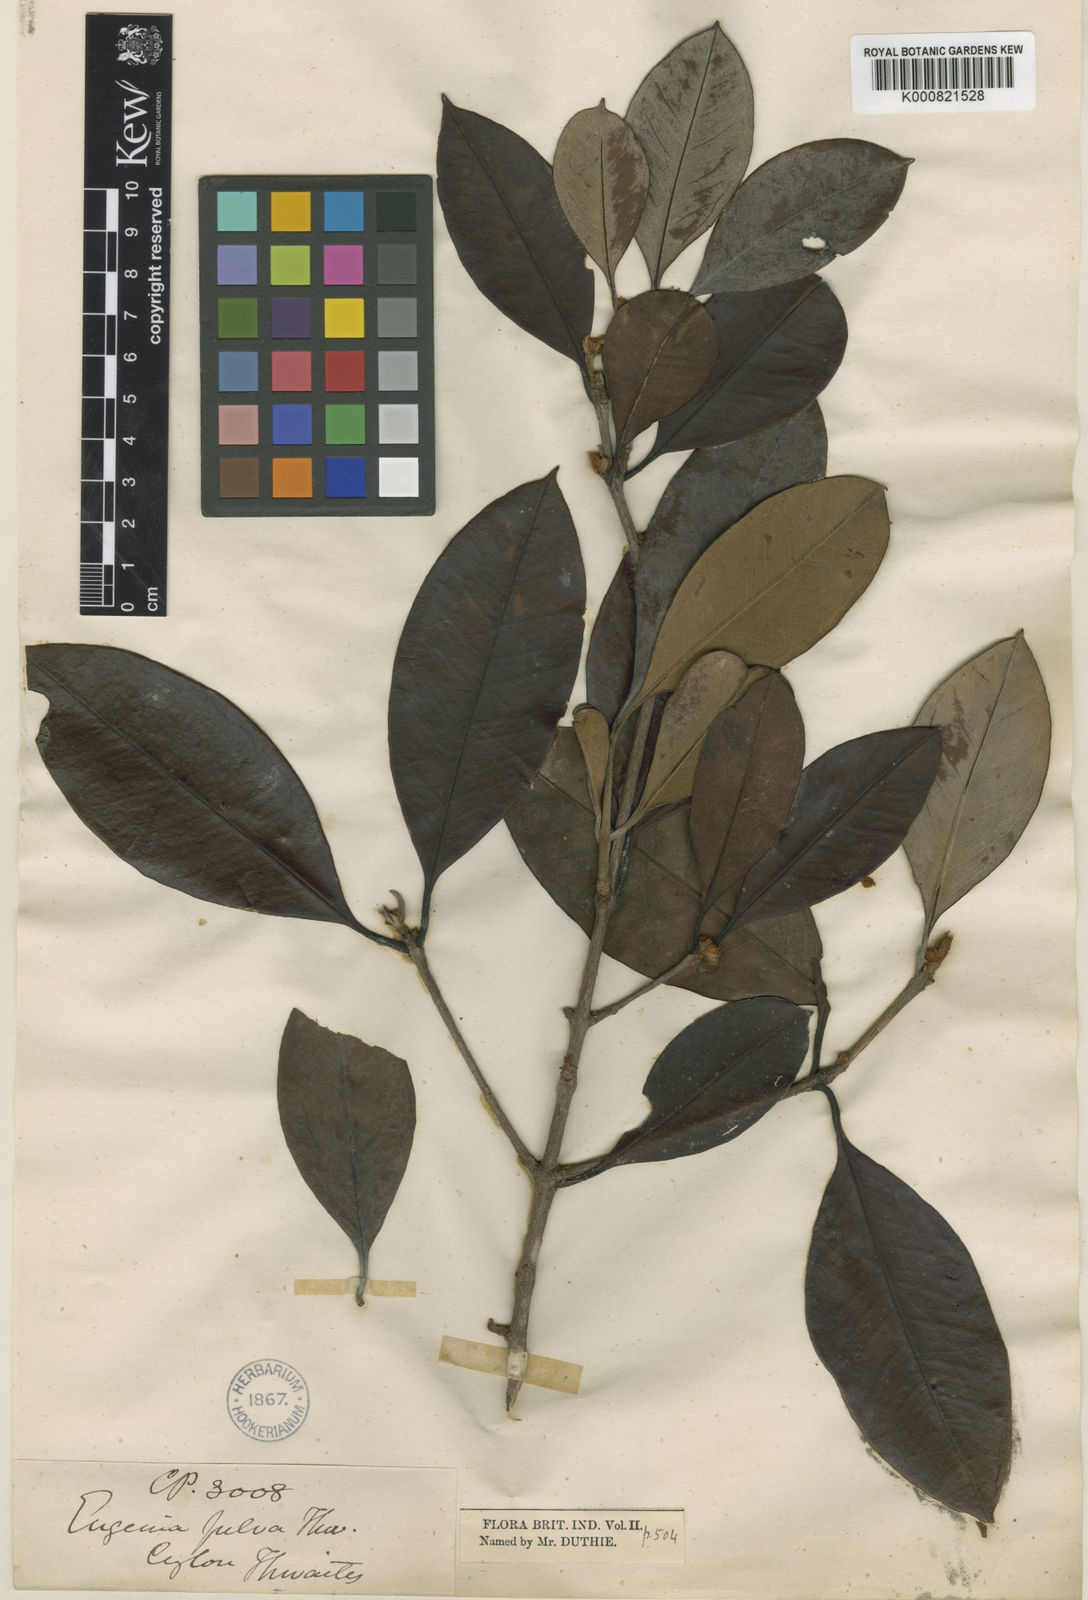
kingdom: Plantae
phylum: Tracheophyta
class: Magnoliopsida
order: Myrtales
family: Myrtaceae
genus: Eugenia
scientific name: Eugenia fulva
